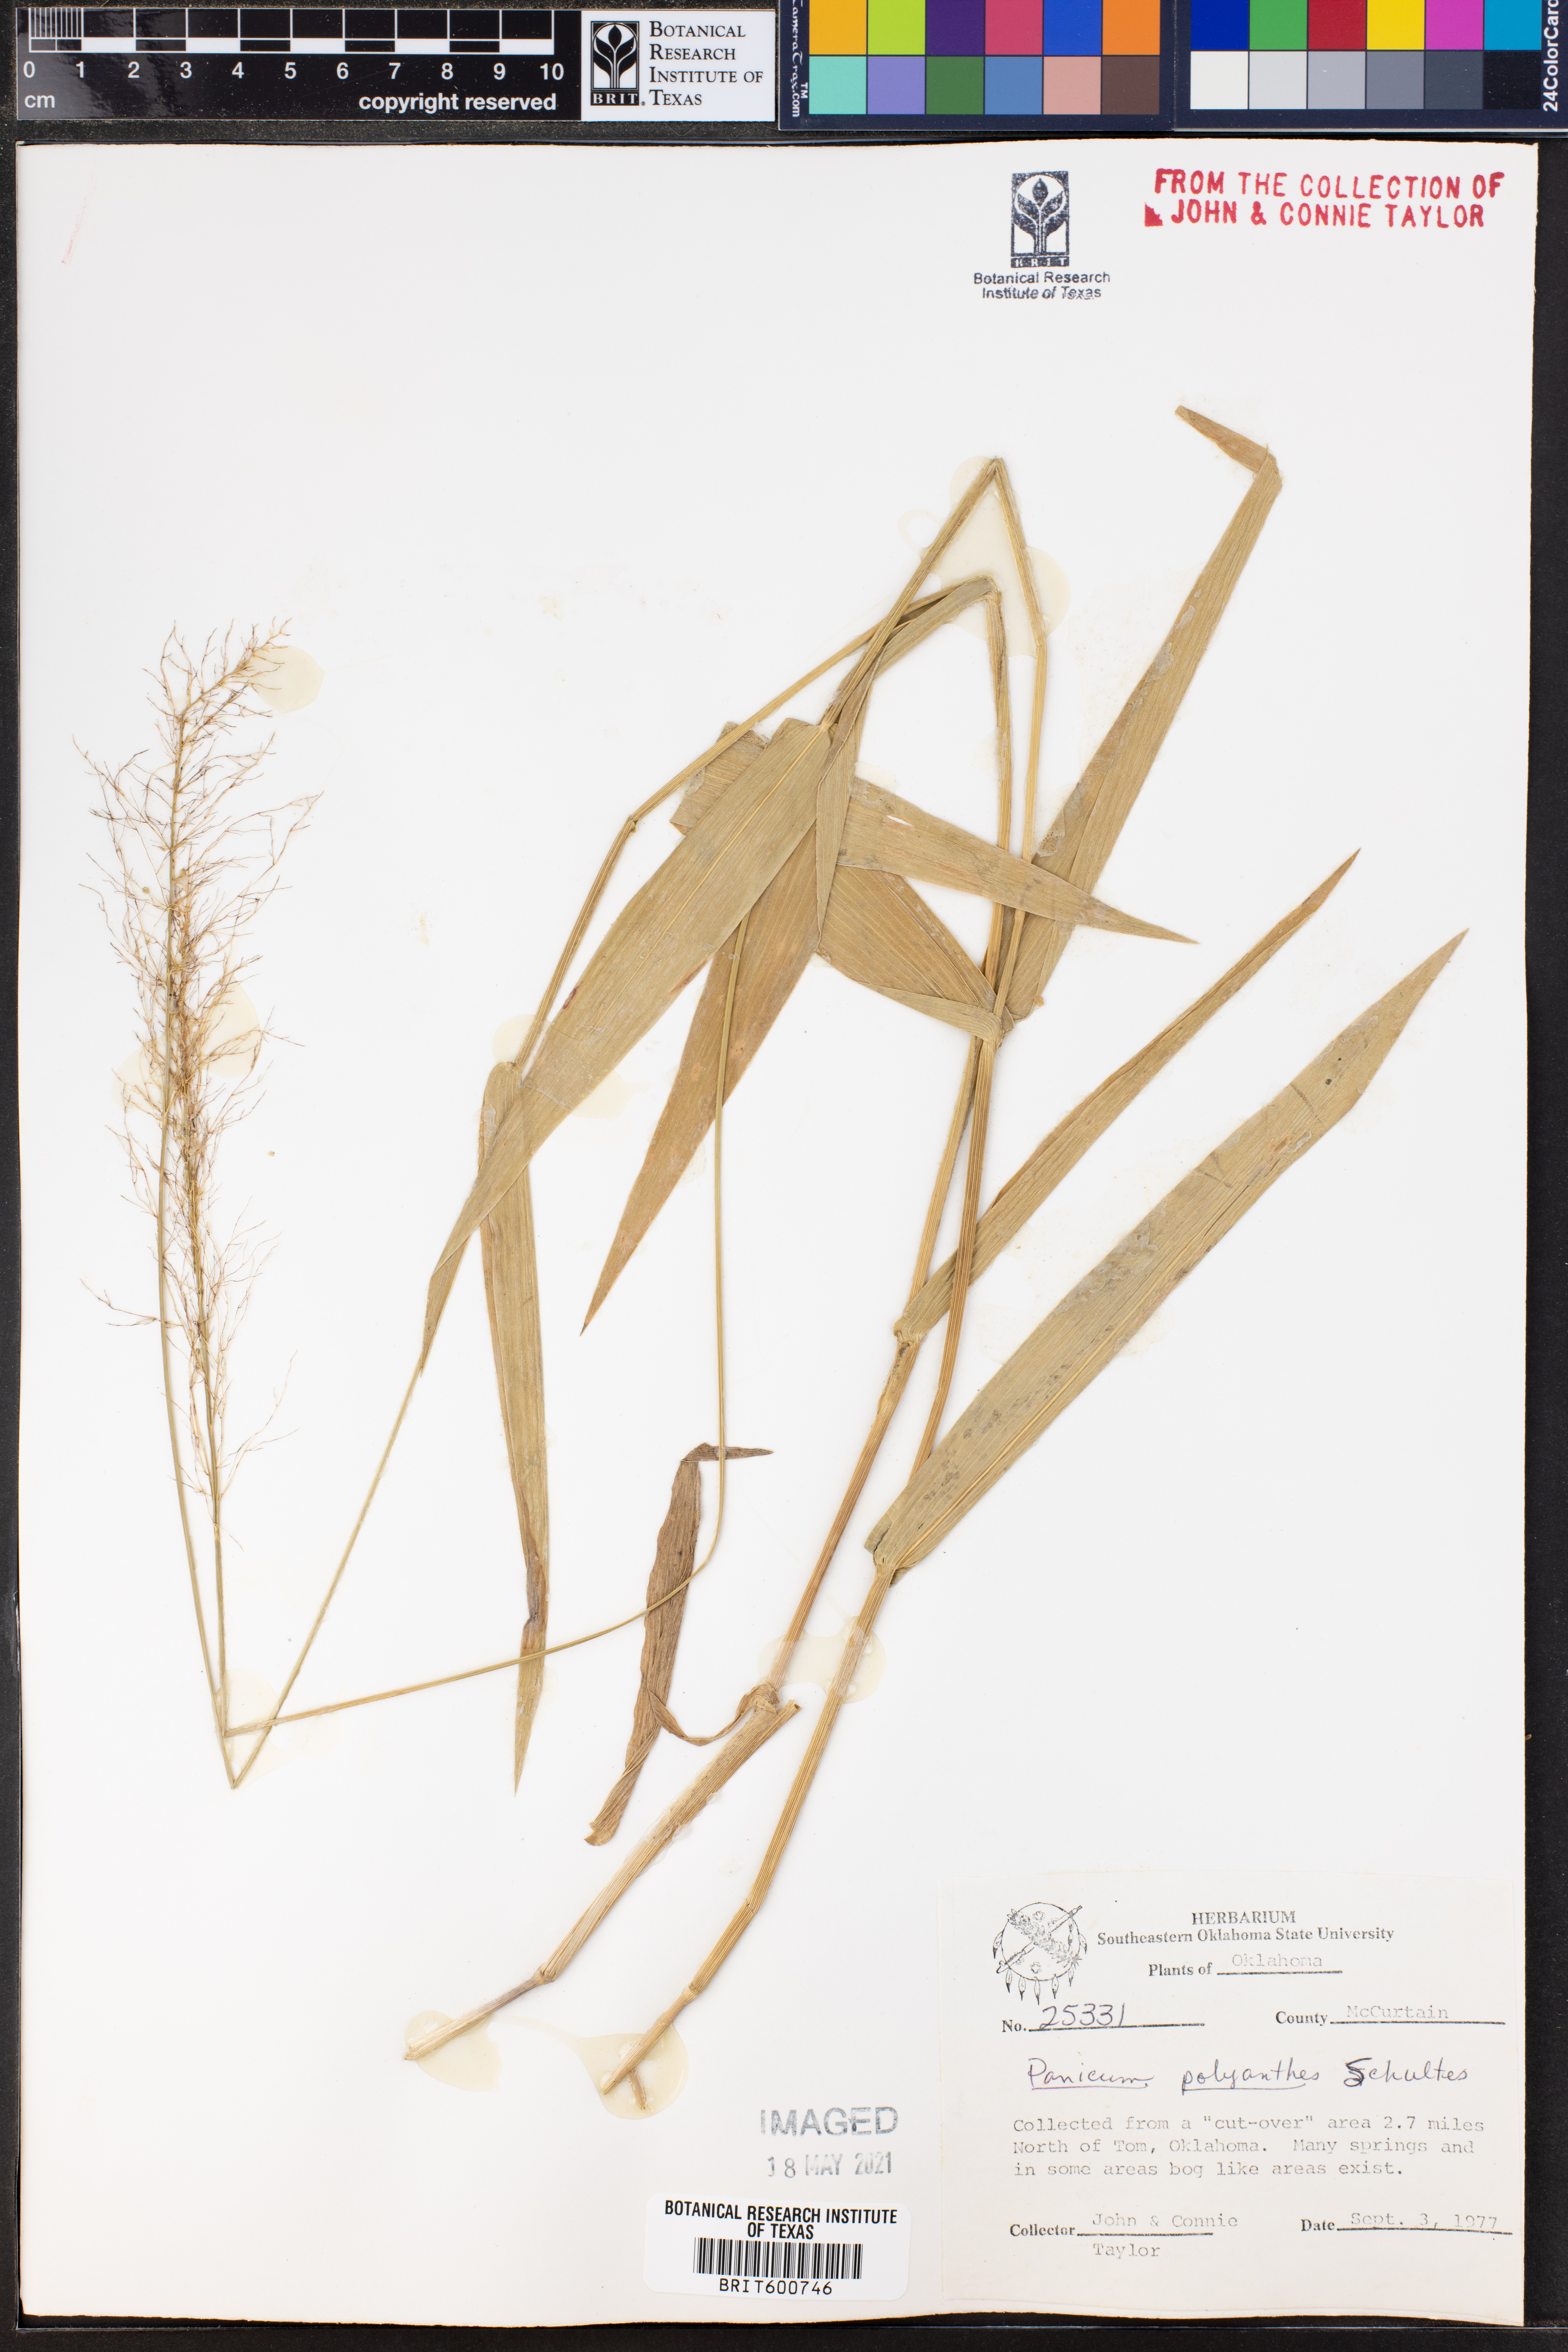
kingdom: Plantae
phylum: Tracheophyta
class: Liliopsida
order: Poales
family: Poaceae
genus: Dichanthelium
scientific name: Dichanthelium polyanthes
